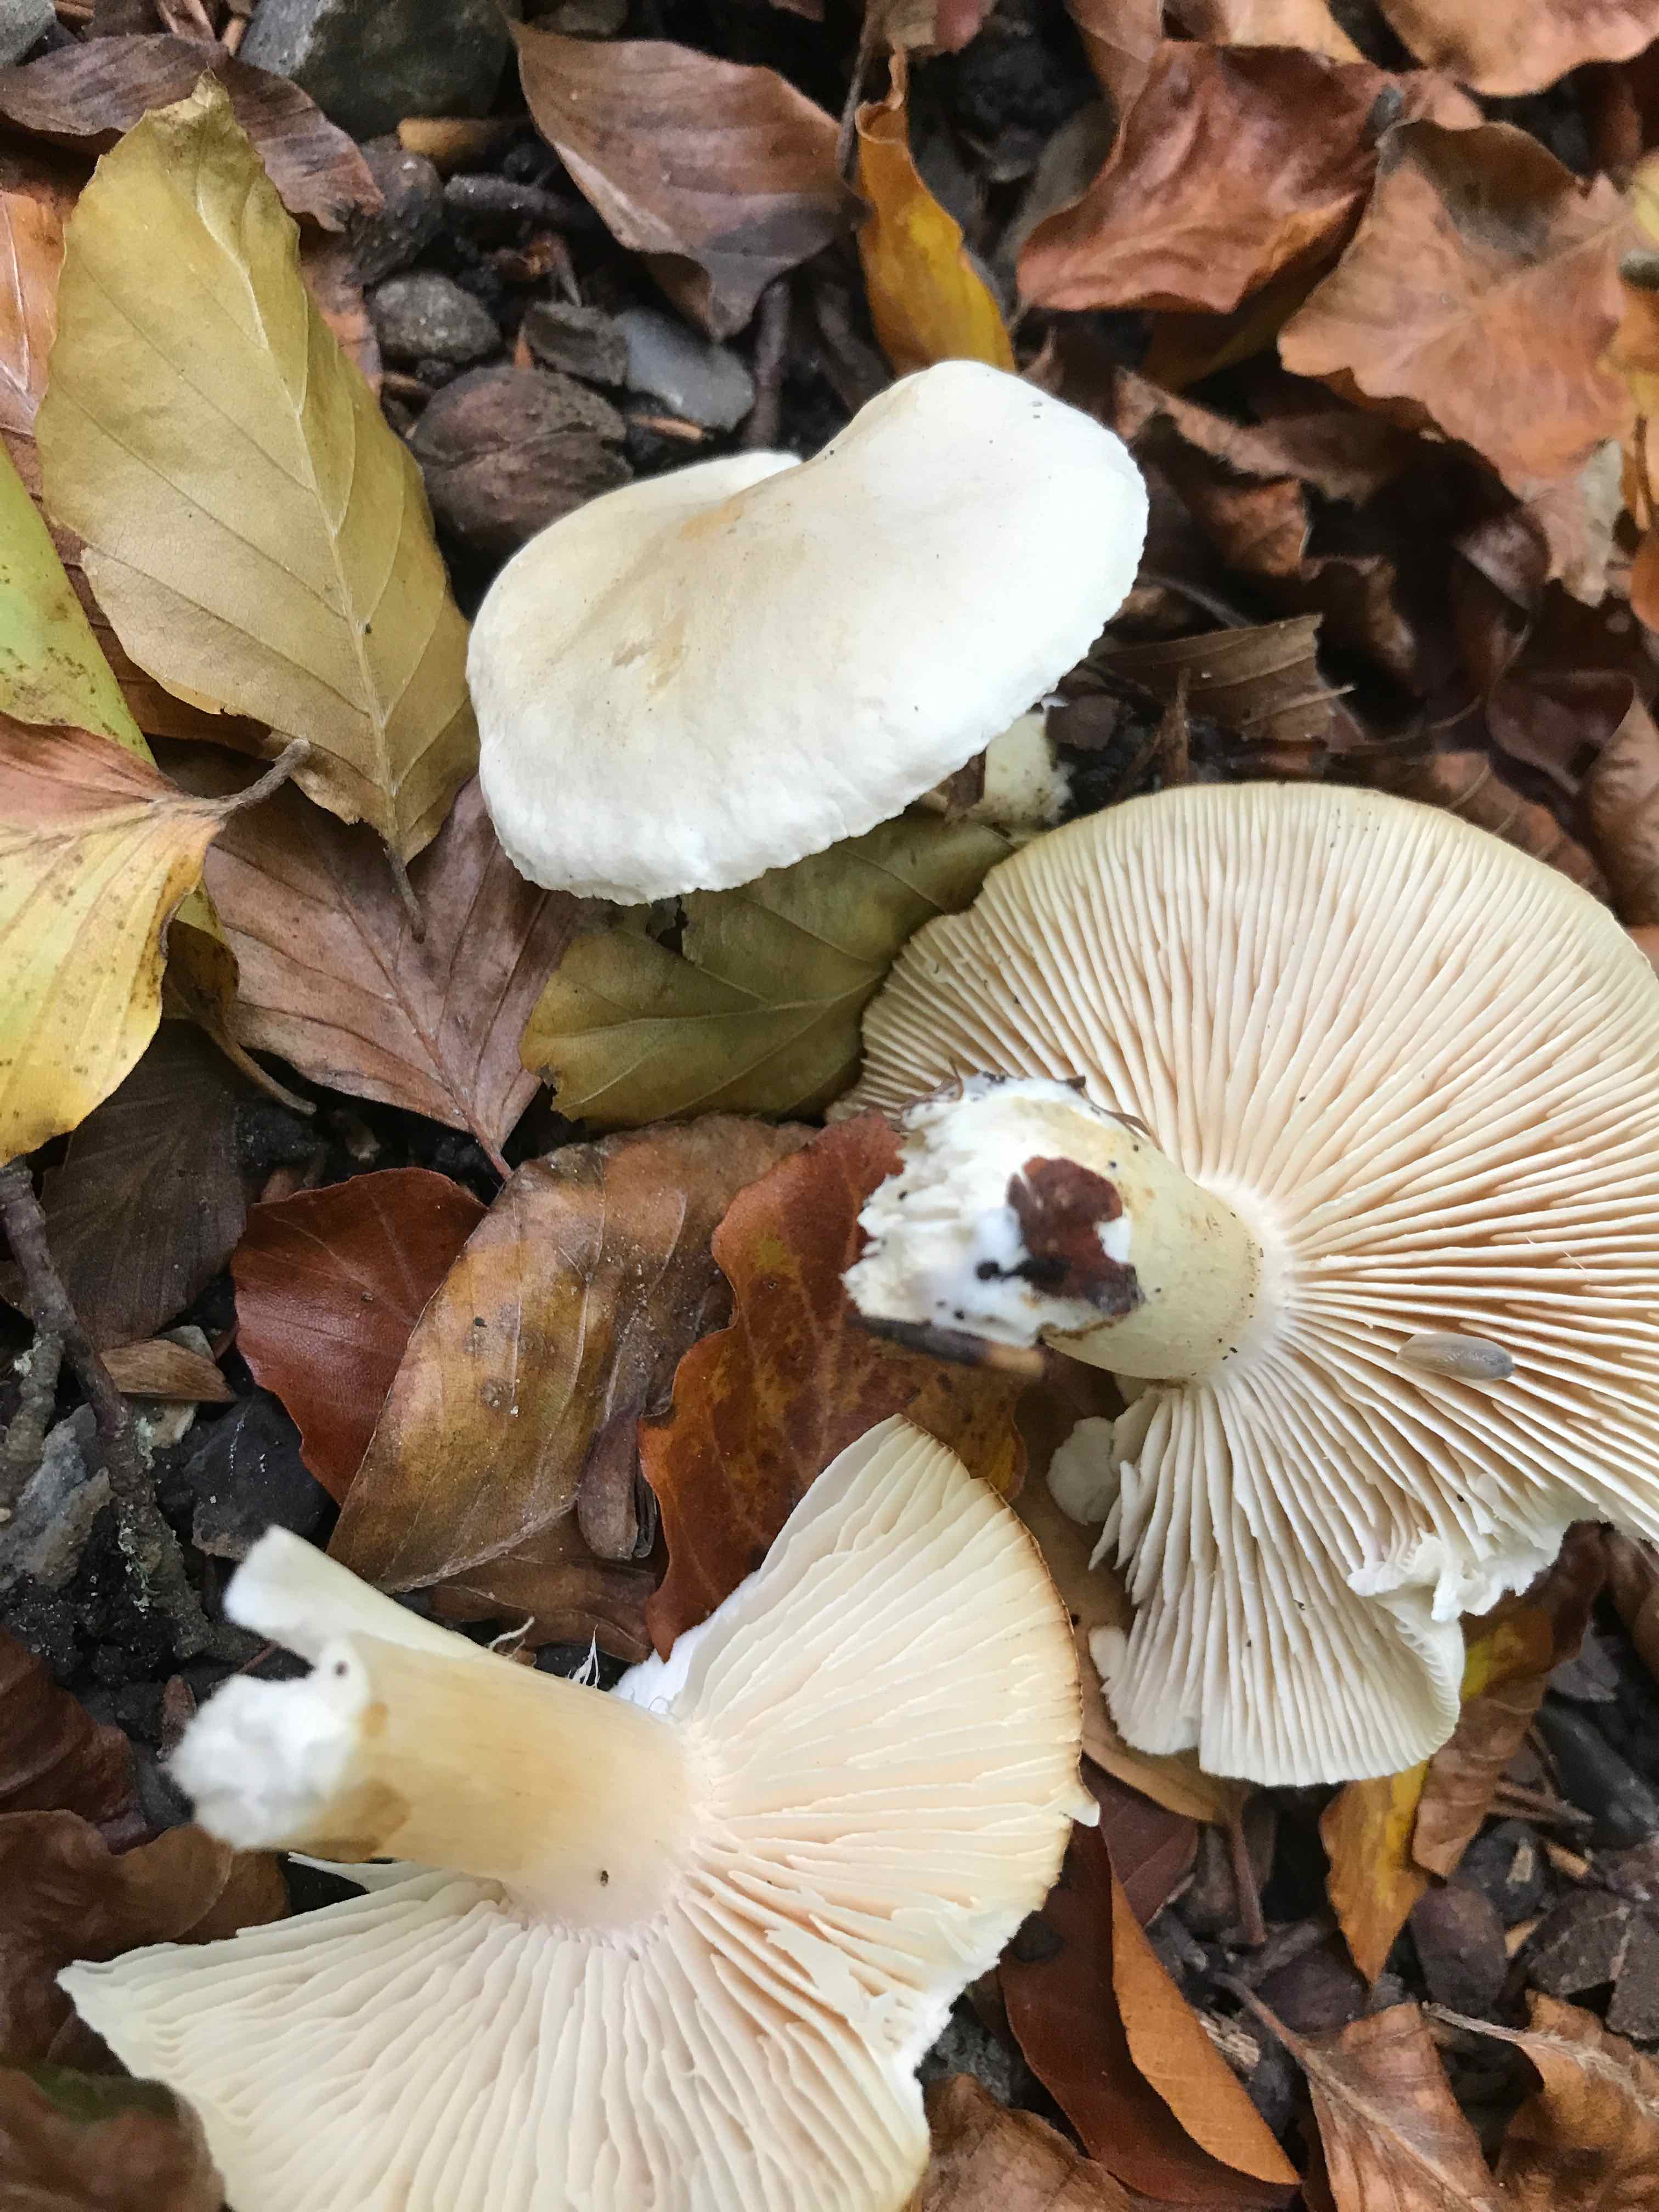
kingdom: Fungi
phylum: Basidiomycota
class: Agaricomycetes
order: Agaricales
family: Tricholomataceae
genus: Tricholoma
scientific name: Tricholoma lascivum
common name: stinkende ridderhat
